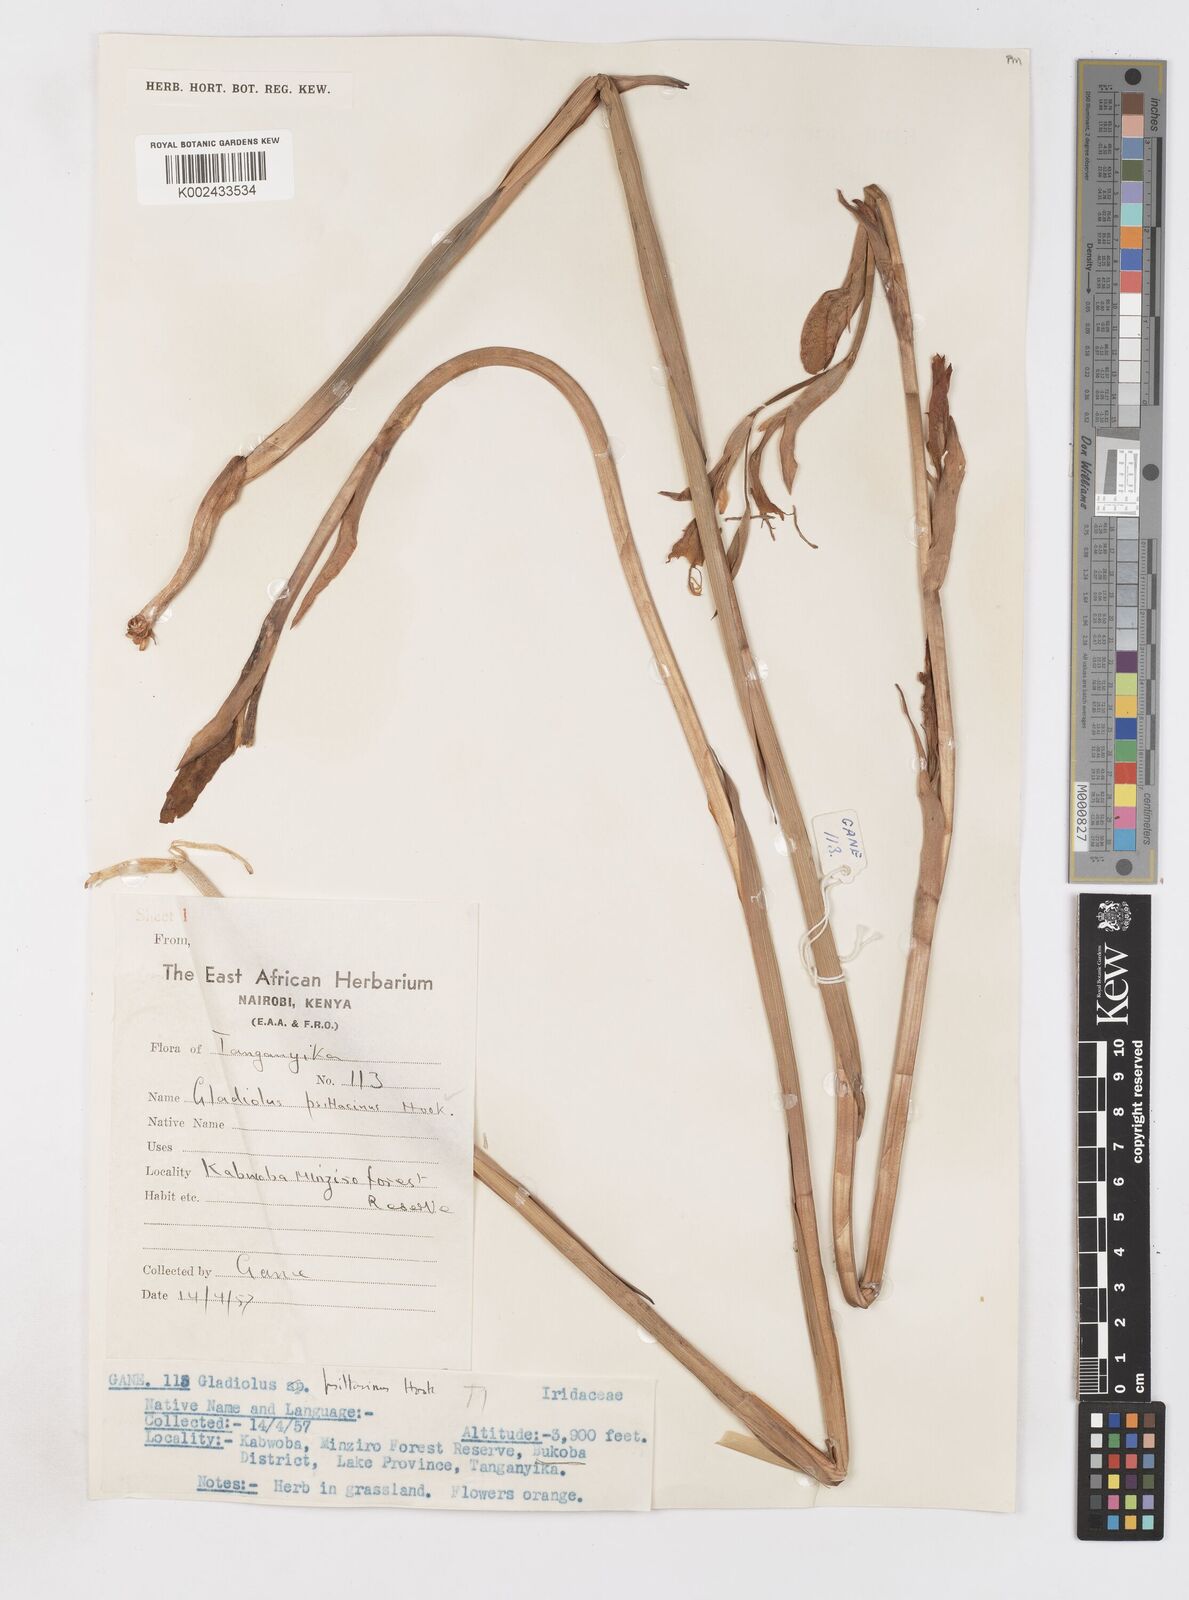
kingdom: Plantae
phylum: Tracheophyta
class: Liliopsida
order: Asparagales
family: Iridaceae
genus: Gladiolus
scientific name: Gladiolus dalenii
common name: Cornflag
